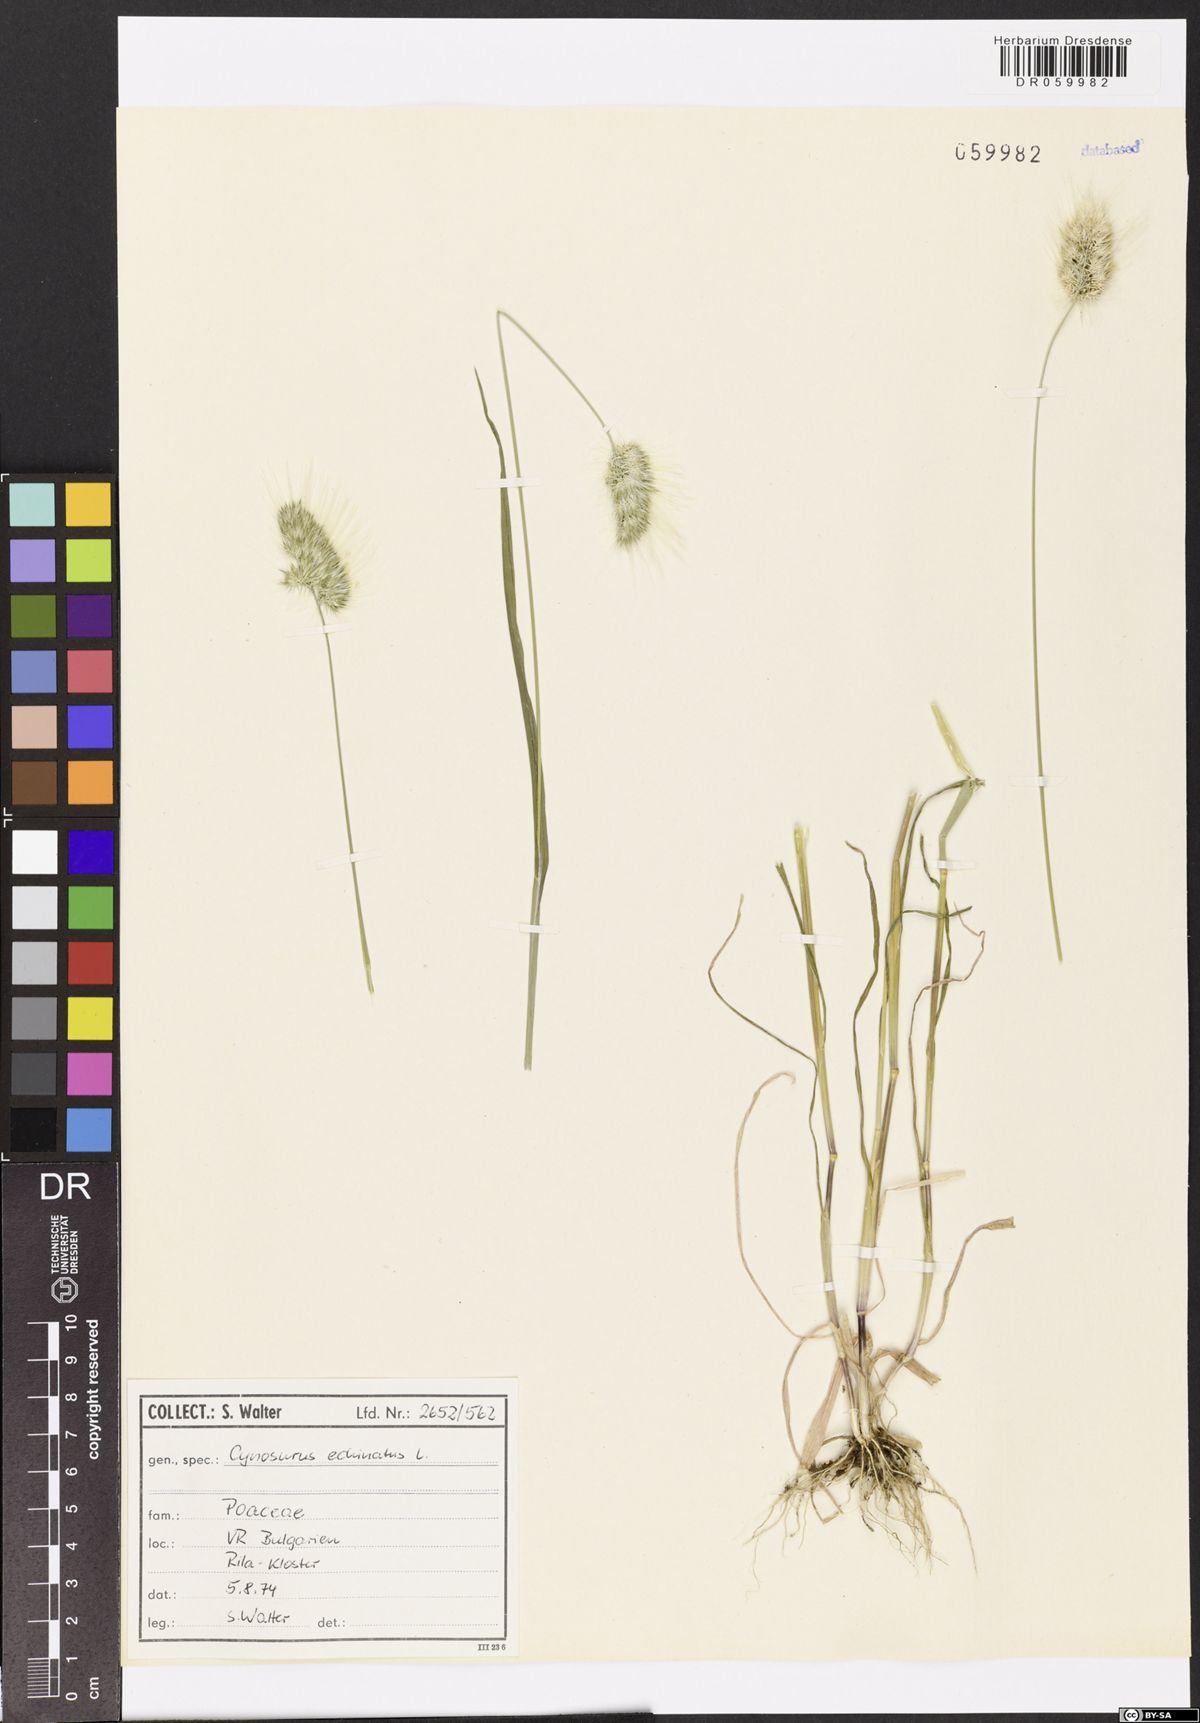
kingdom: Plantae
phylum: Tracheophyta
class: Liliopsida
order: Poales
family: Poaceae
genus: Cynosurus
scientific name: Cynosurus echinatus
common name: Rough dog's-tail
